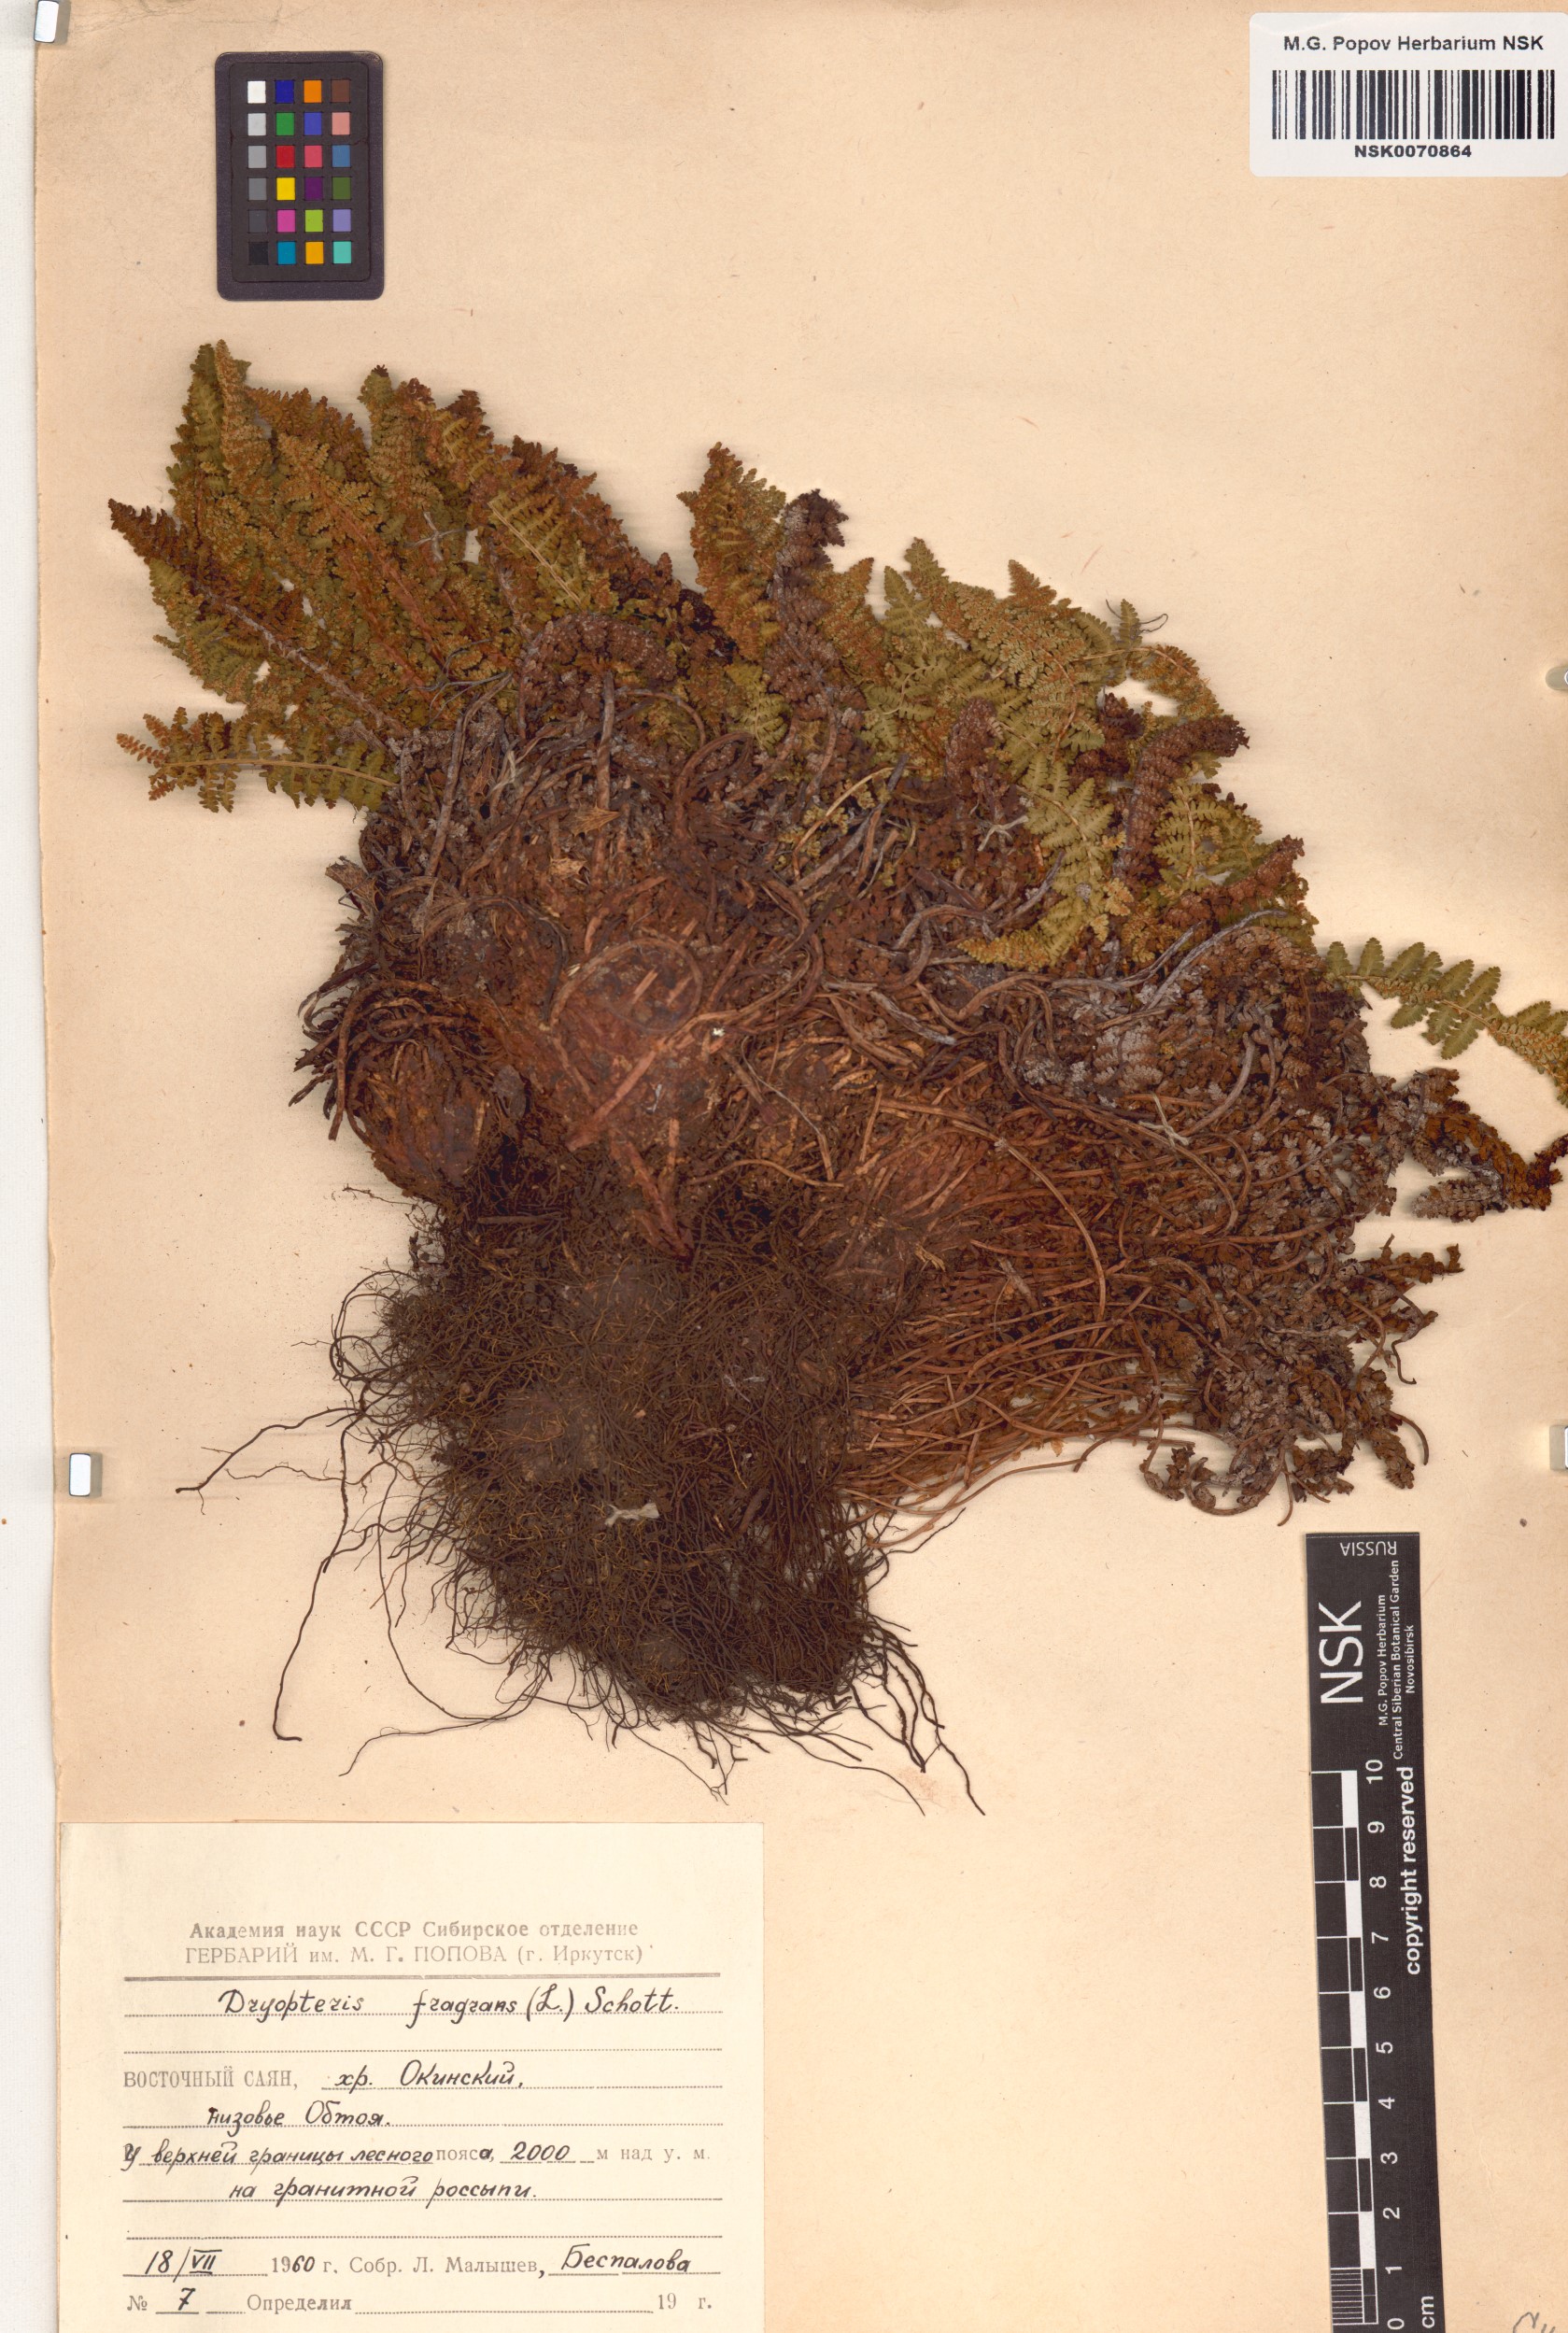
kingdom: Plantae
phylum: Tracheophyta
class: Polypodiopsida
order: Polypodiales
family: Dryopteridaceae
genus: Dryopteris
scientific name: Dryopteris fragrans
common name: Fragrant wood fern
